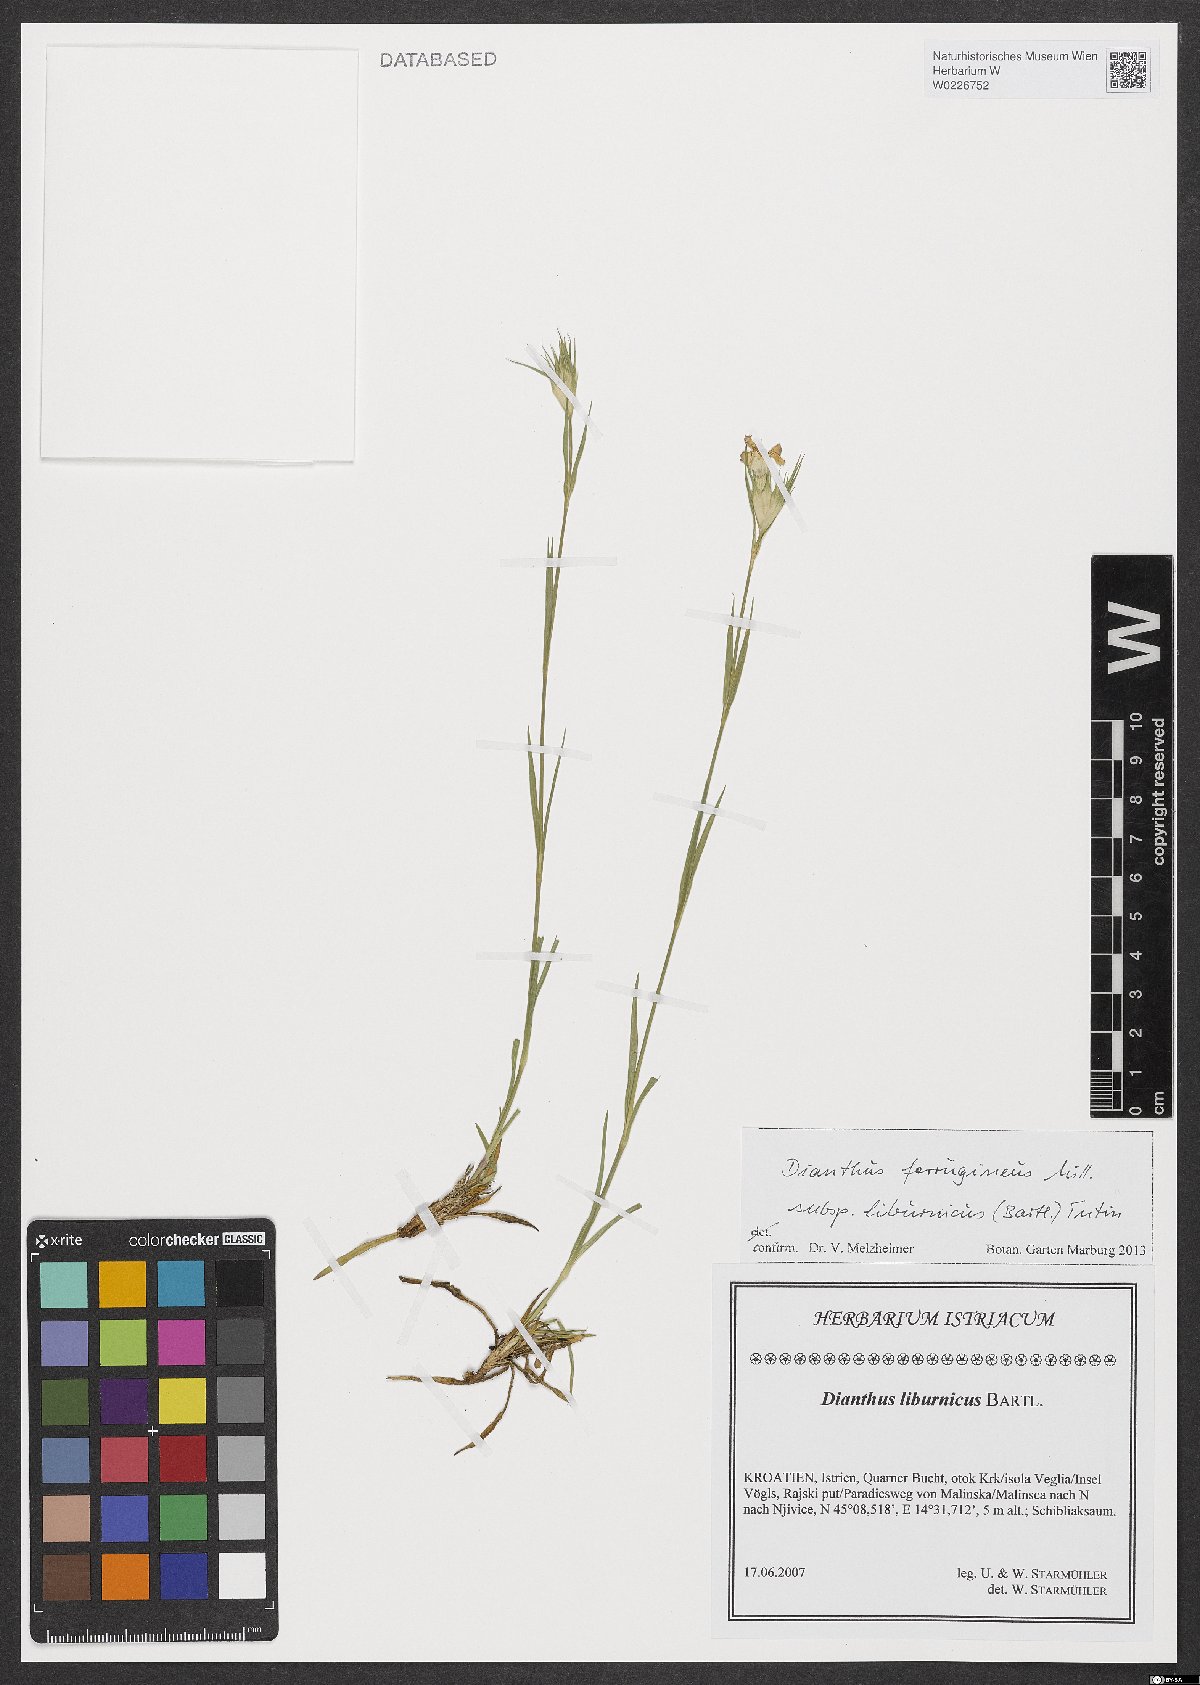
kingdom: Plantae
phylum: Tracheophyta
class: Magnoliopsida
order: Caryophyllales
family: Caryophyllaceae
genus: Dianthus
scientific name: Dianthus balbisii
